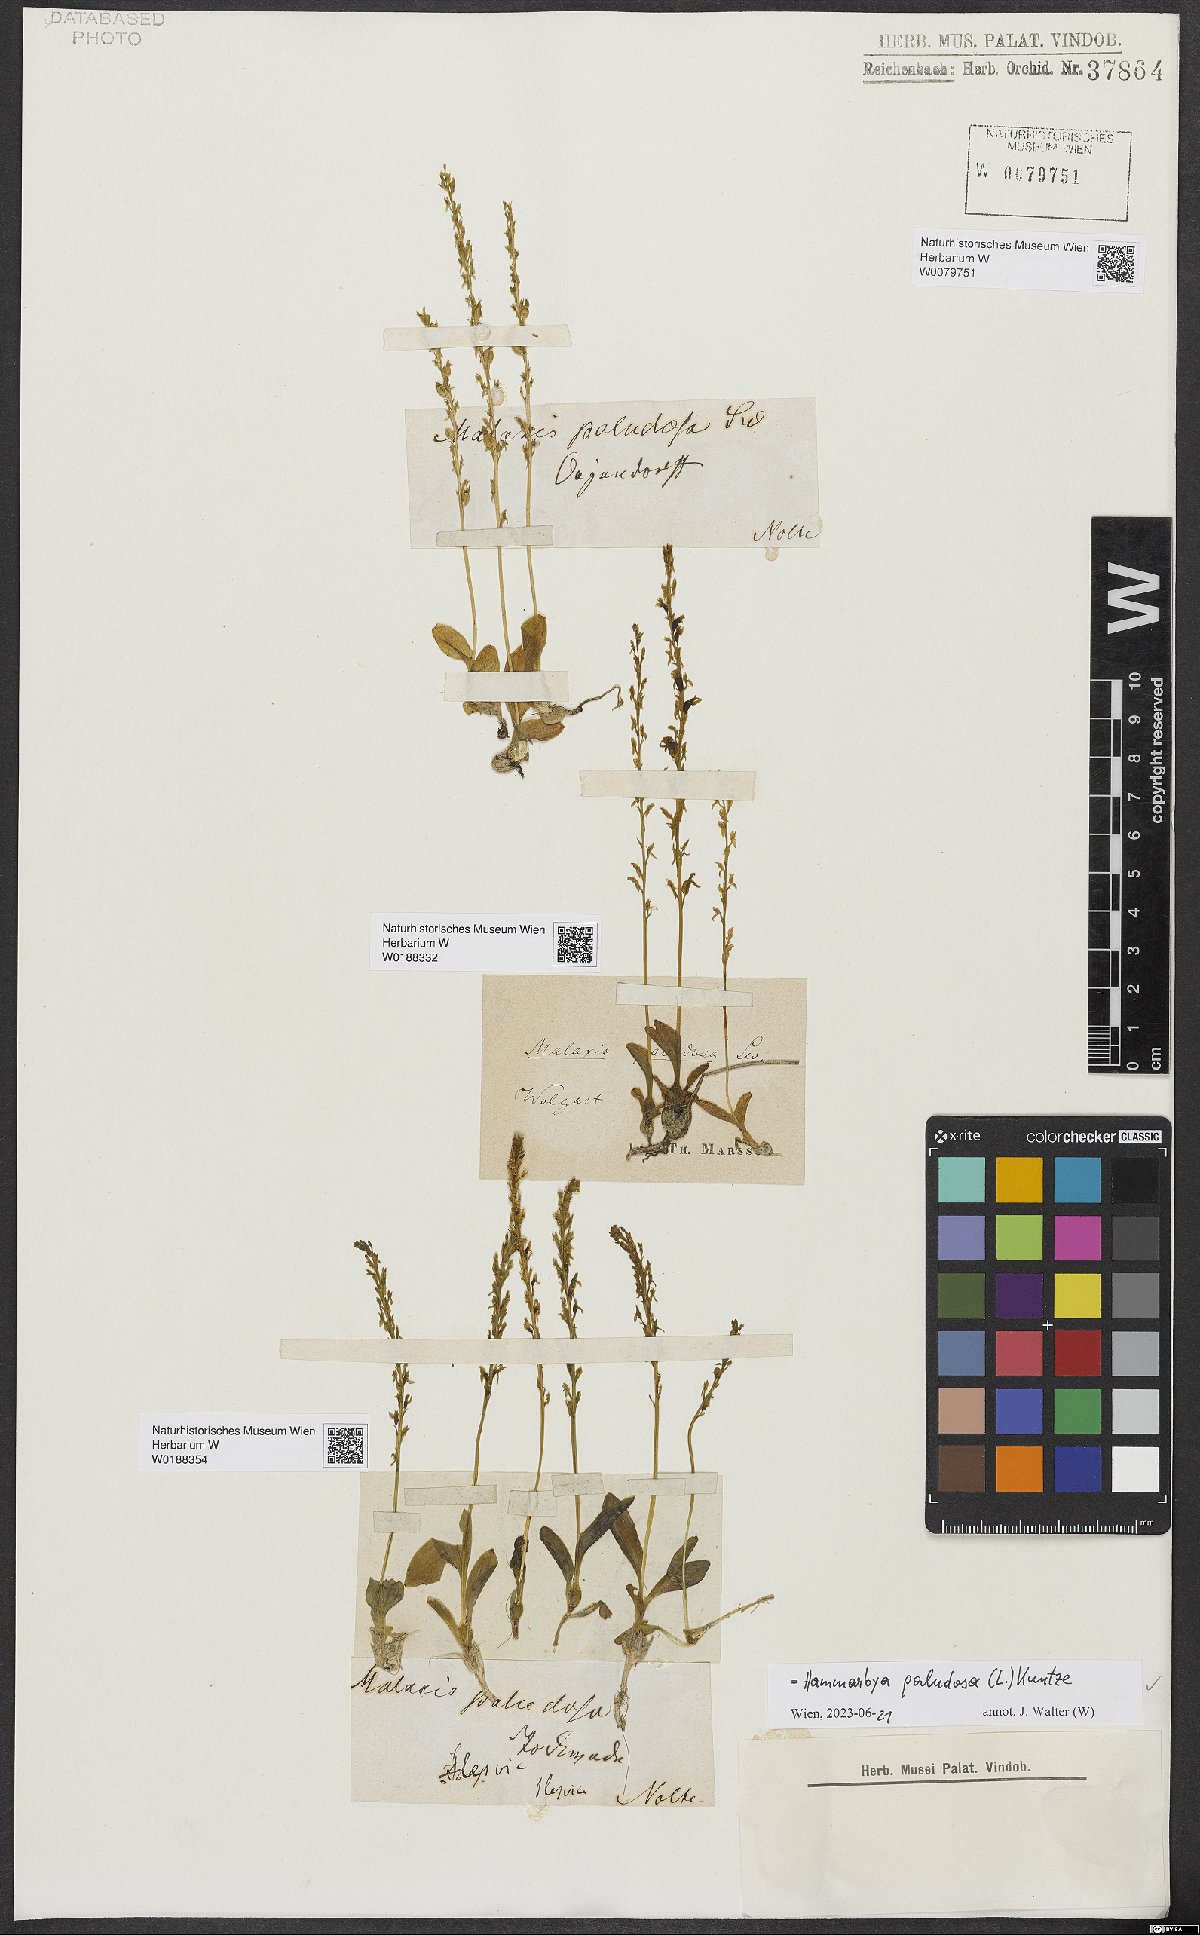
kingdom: Plantae
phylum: Tracheophyta
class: Liliopsida
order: Asparagales
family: Orchidaceae
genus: Hammarbya
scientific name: Hammarbya paludosa
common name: Bog orchid
